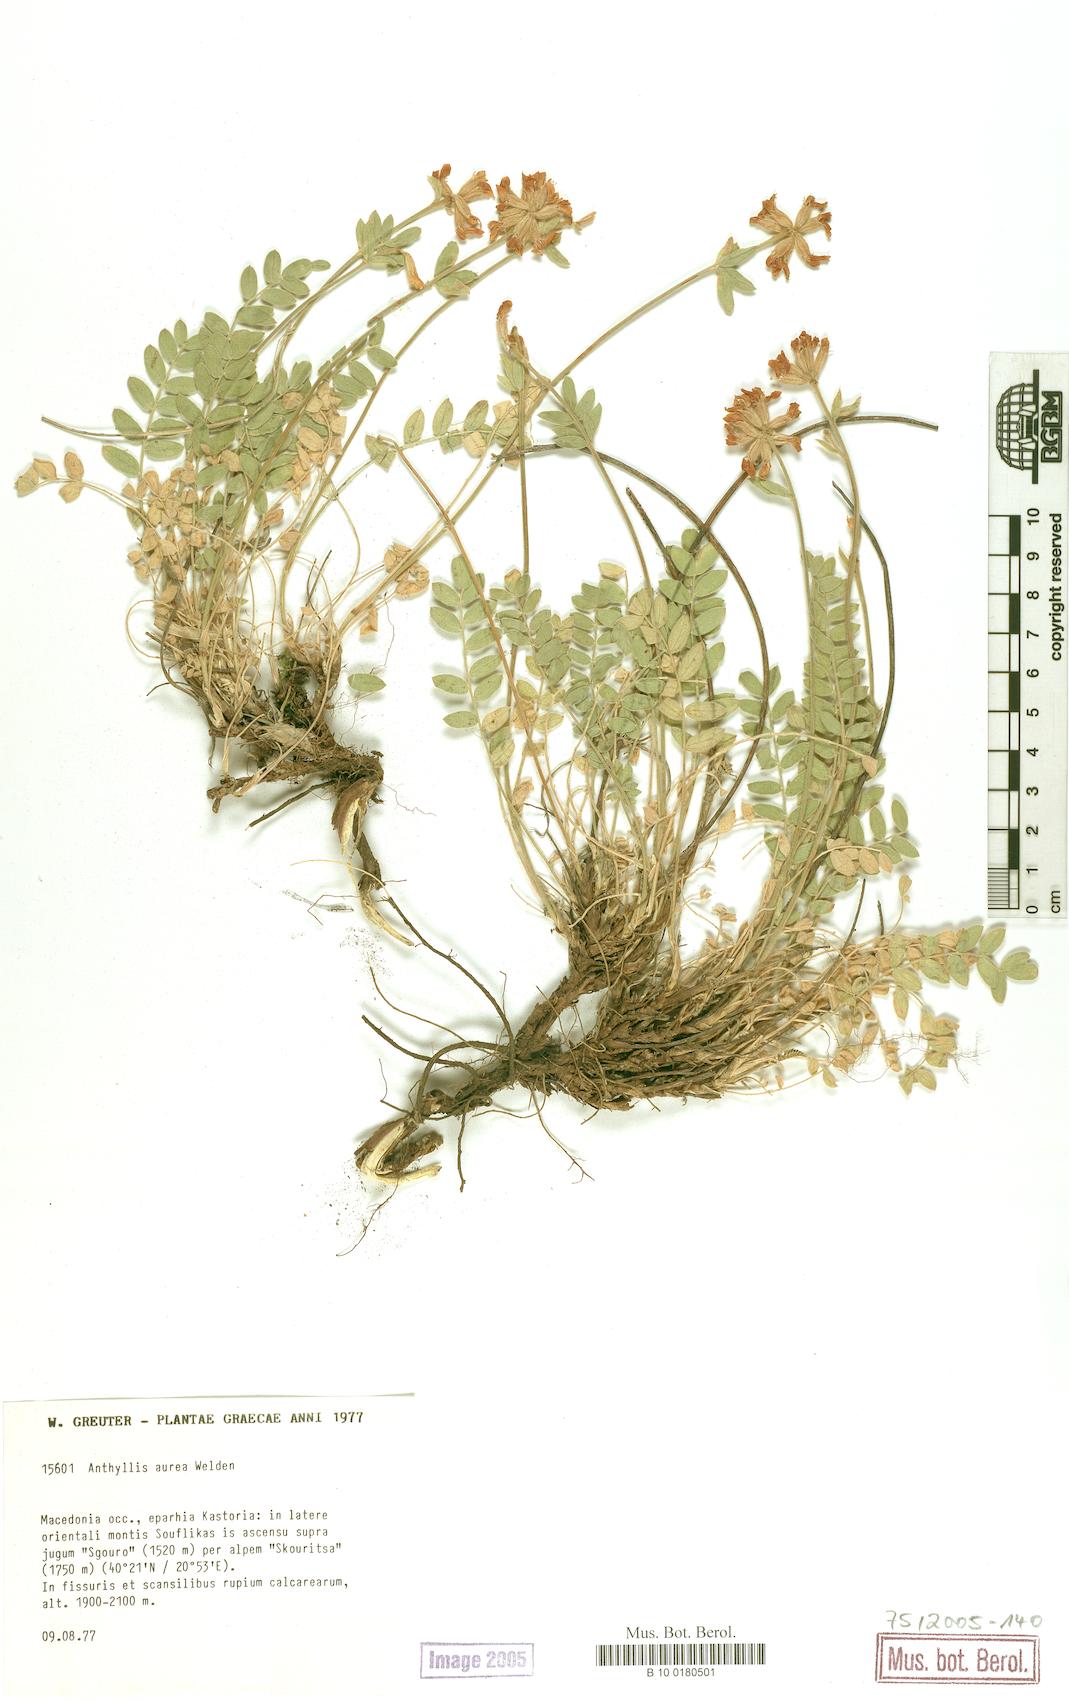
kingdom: Plantae
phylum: Tracheophyta
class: Magnoliopsida
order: Fabales
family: Fabaceae
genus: Anthyllis
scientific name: Anthyllis aurea
